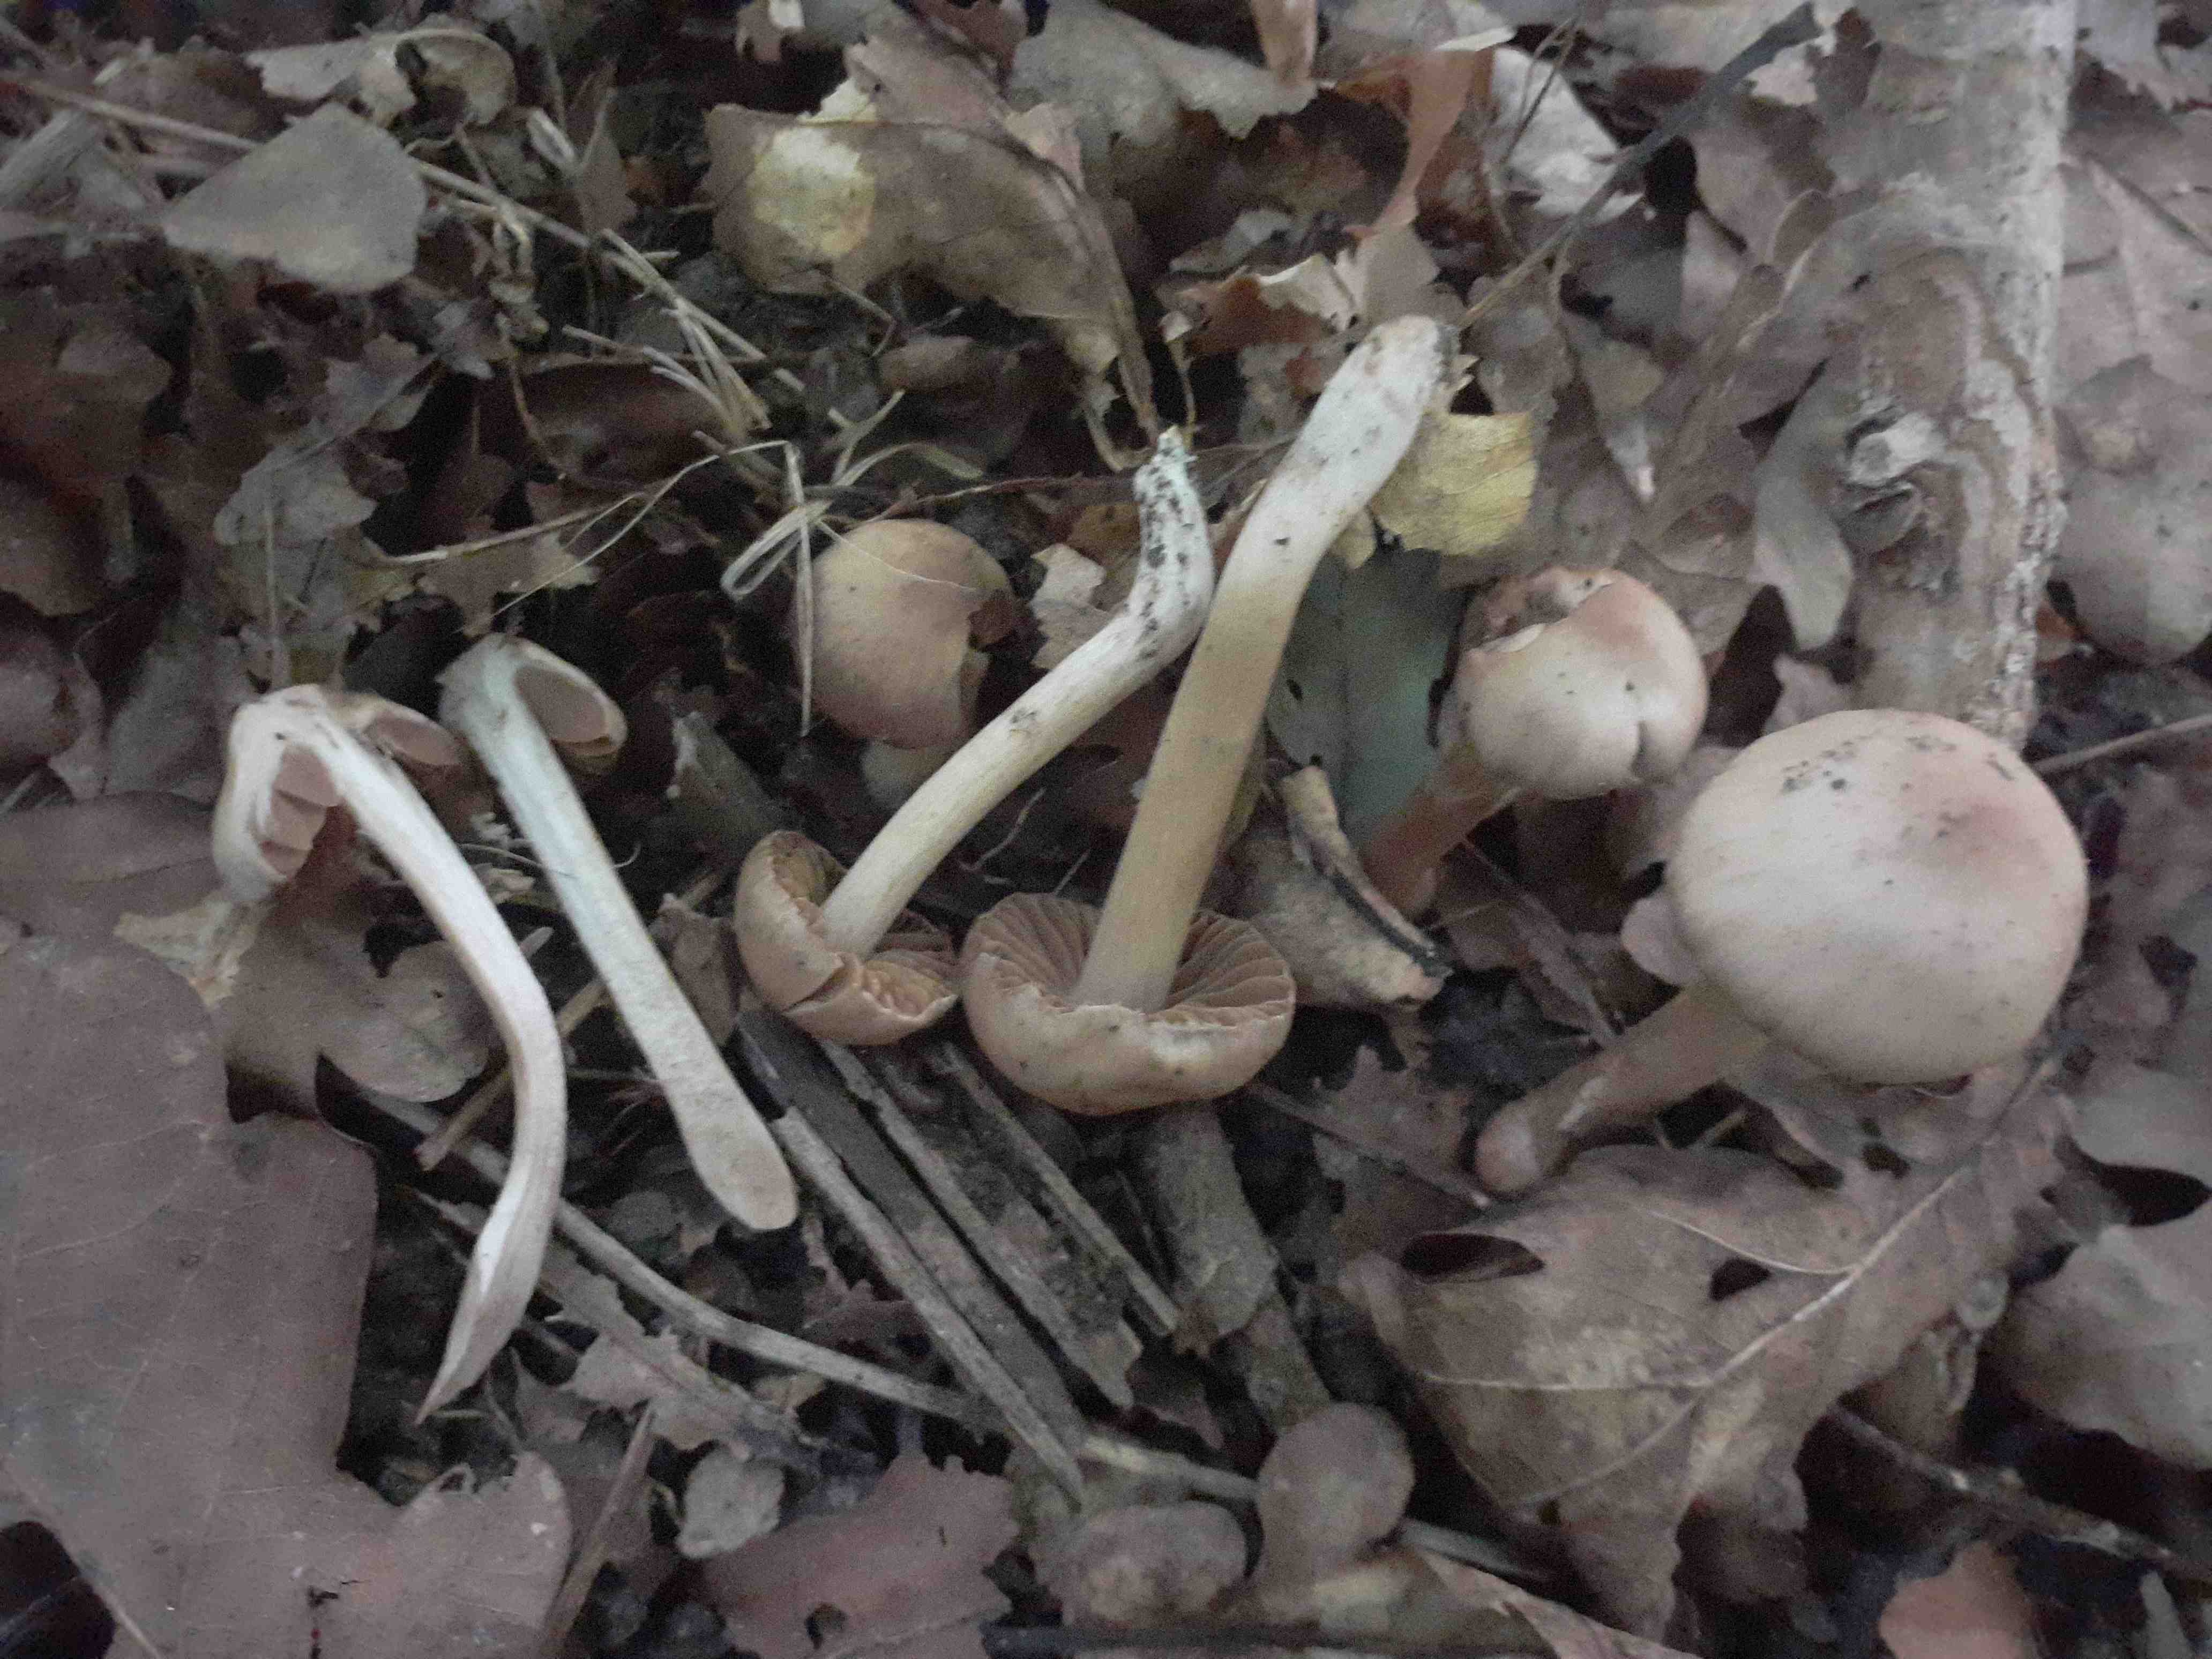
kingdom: Fungi
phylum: Basidiomycota
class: Agaricomycetes
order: Agaricales
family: Cortinariaceae
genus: Cortinarius
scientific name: Cortinarius
